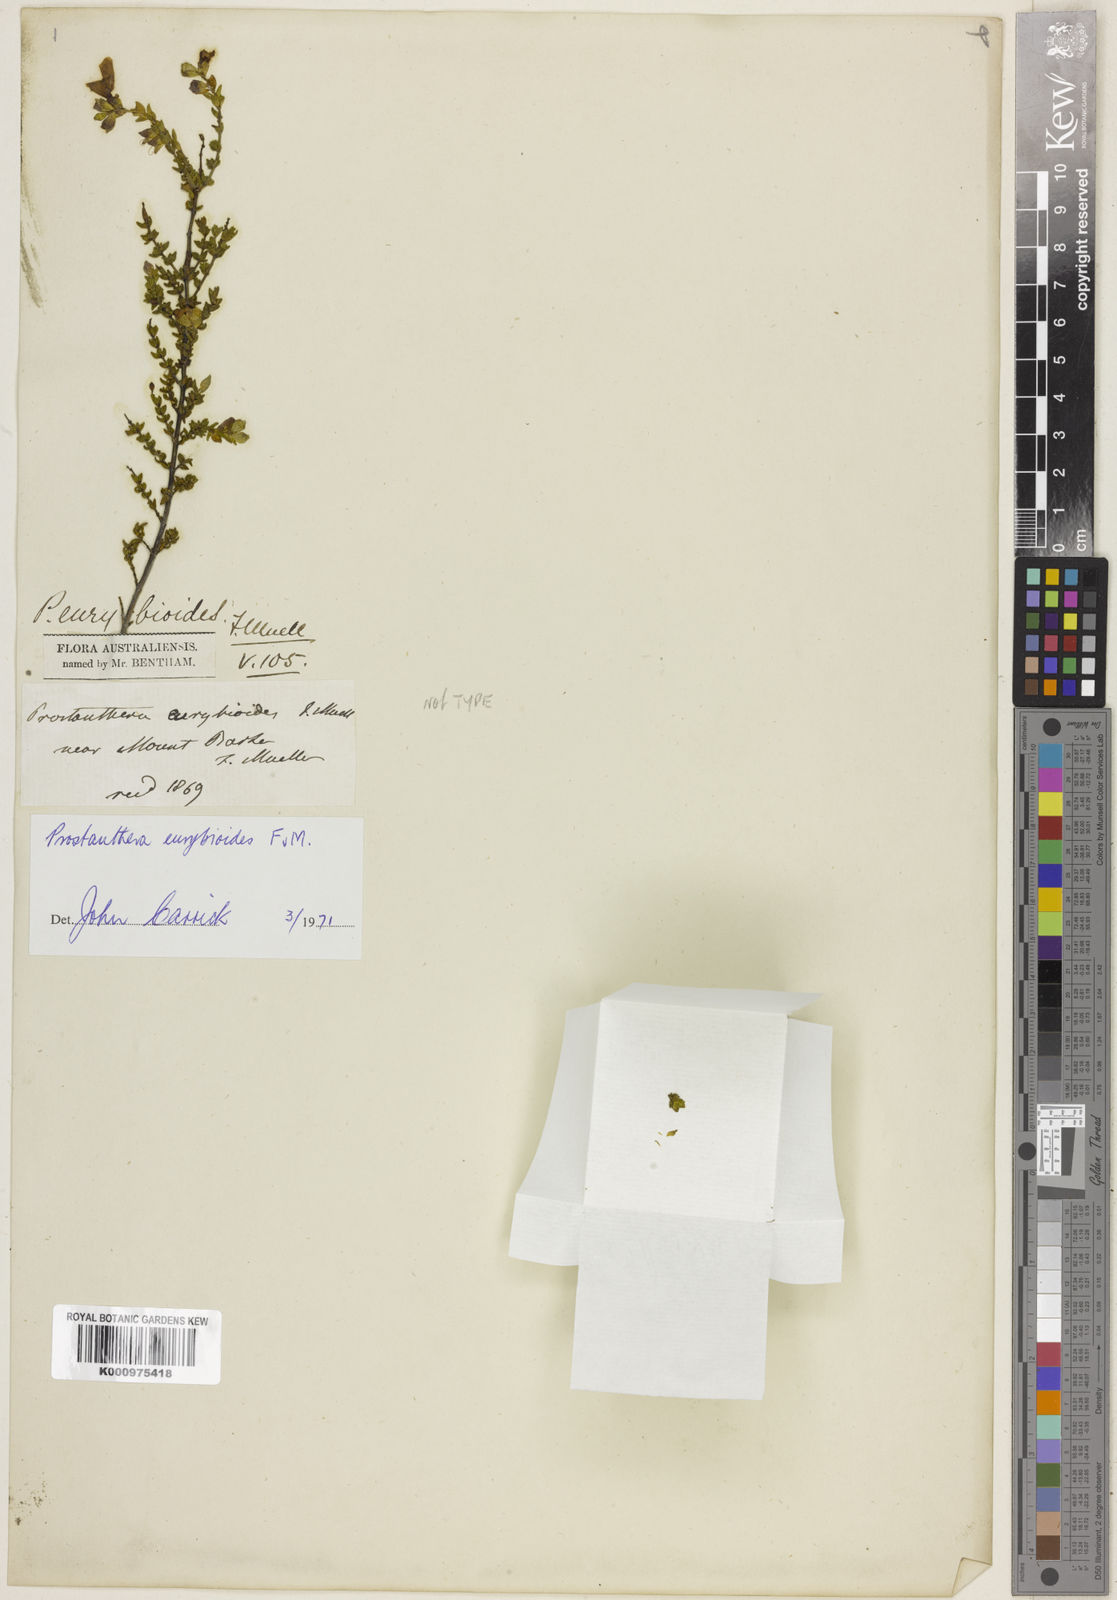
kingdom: Plantae
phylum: Tracheophyta
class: Magnoliopsida
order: Lamiales
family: Lamiaceae
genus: Prostanthera
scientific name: Prostanthera eurybioides
